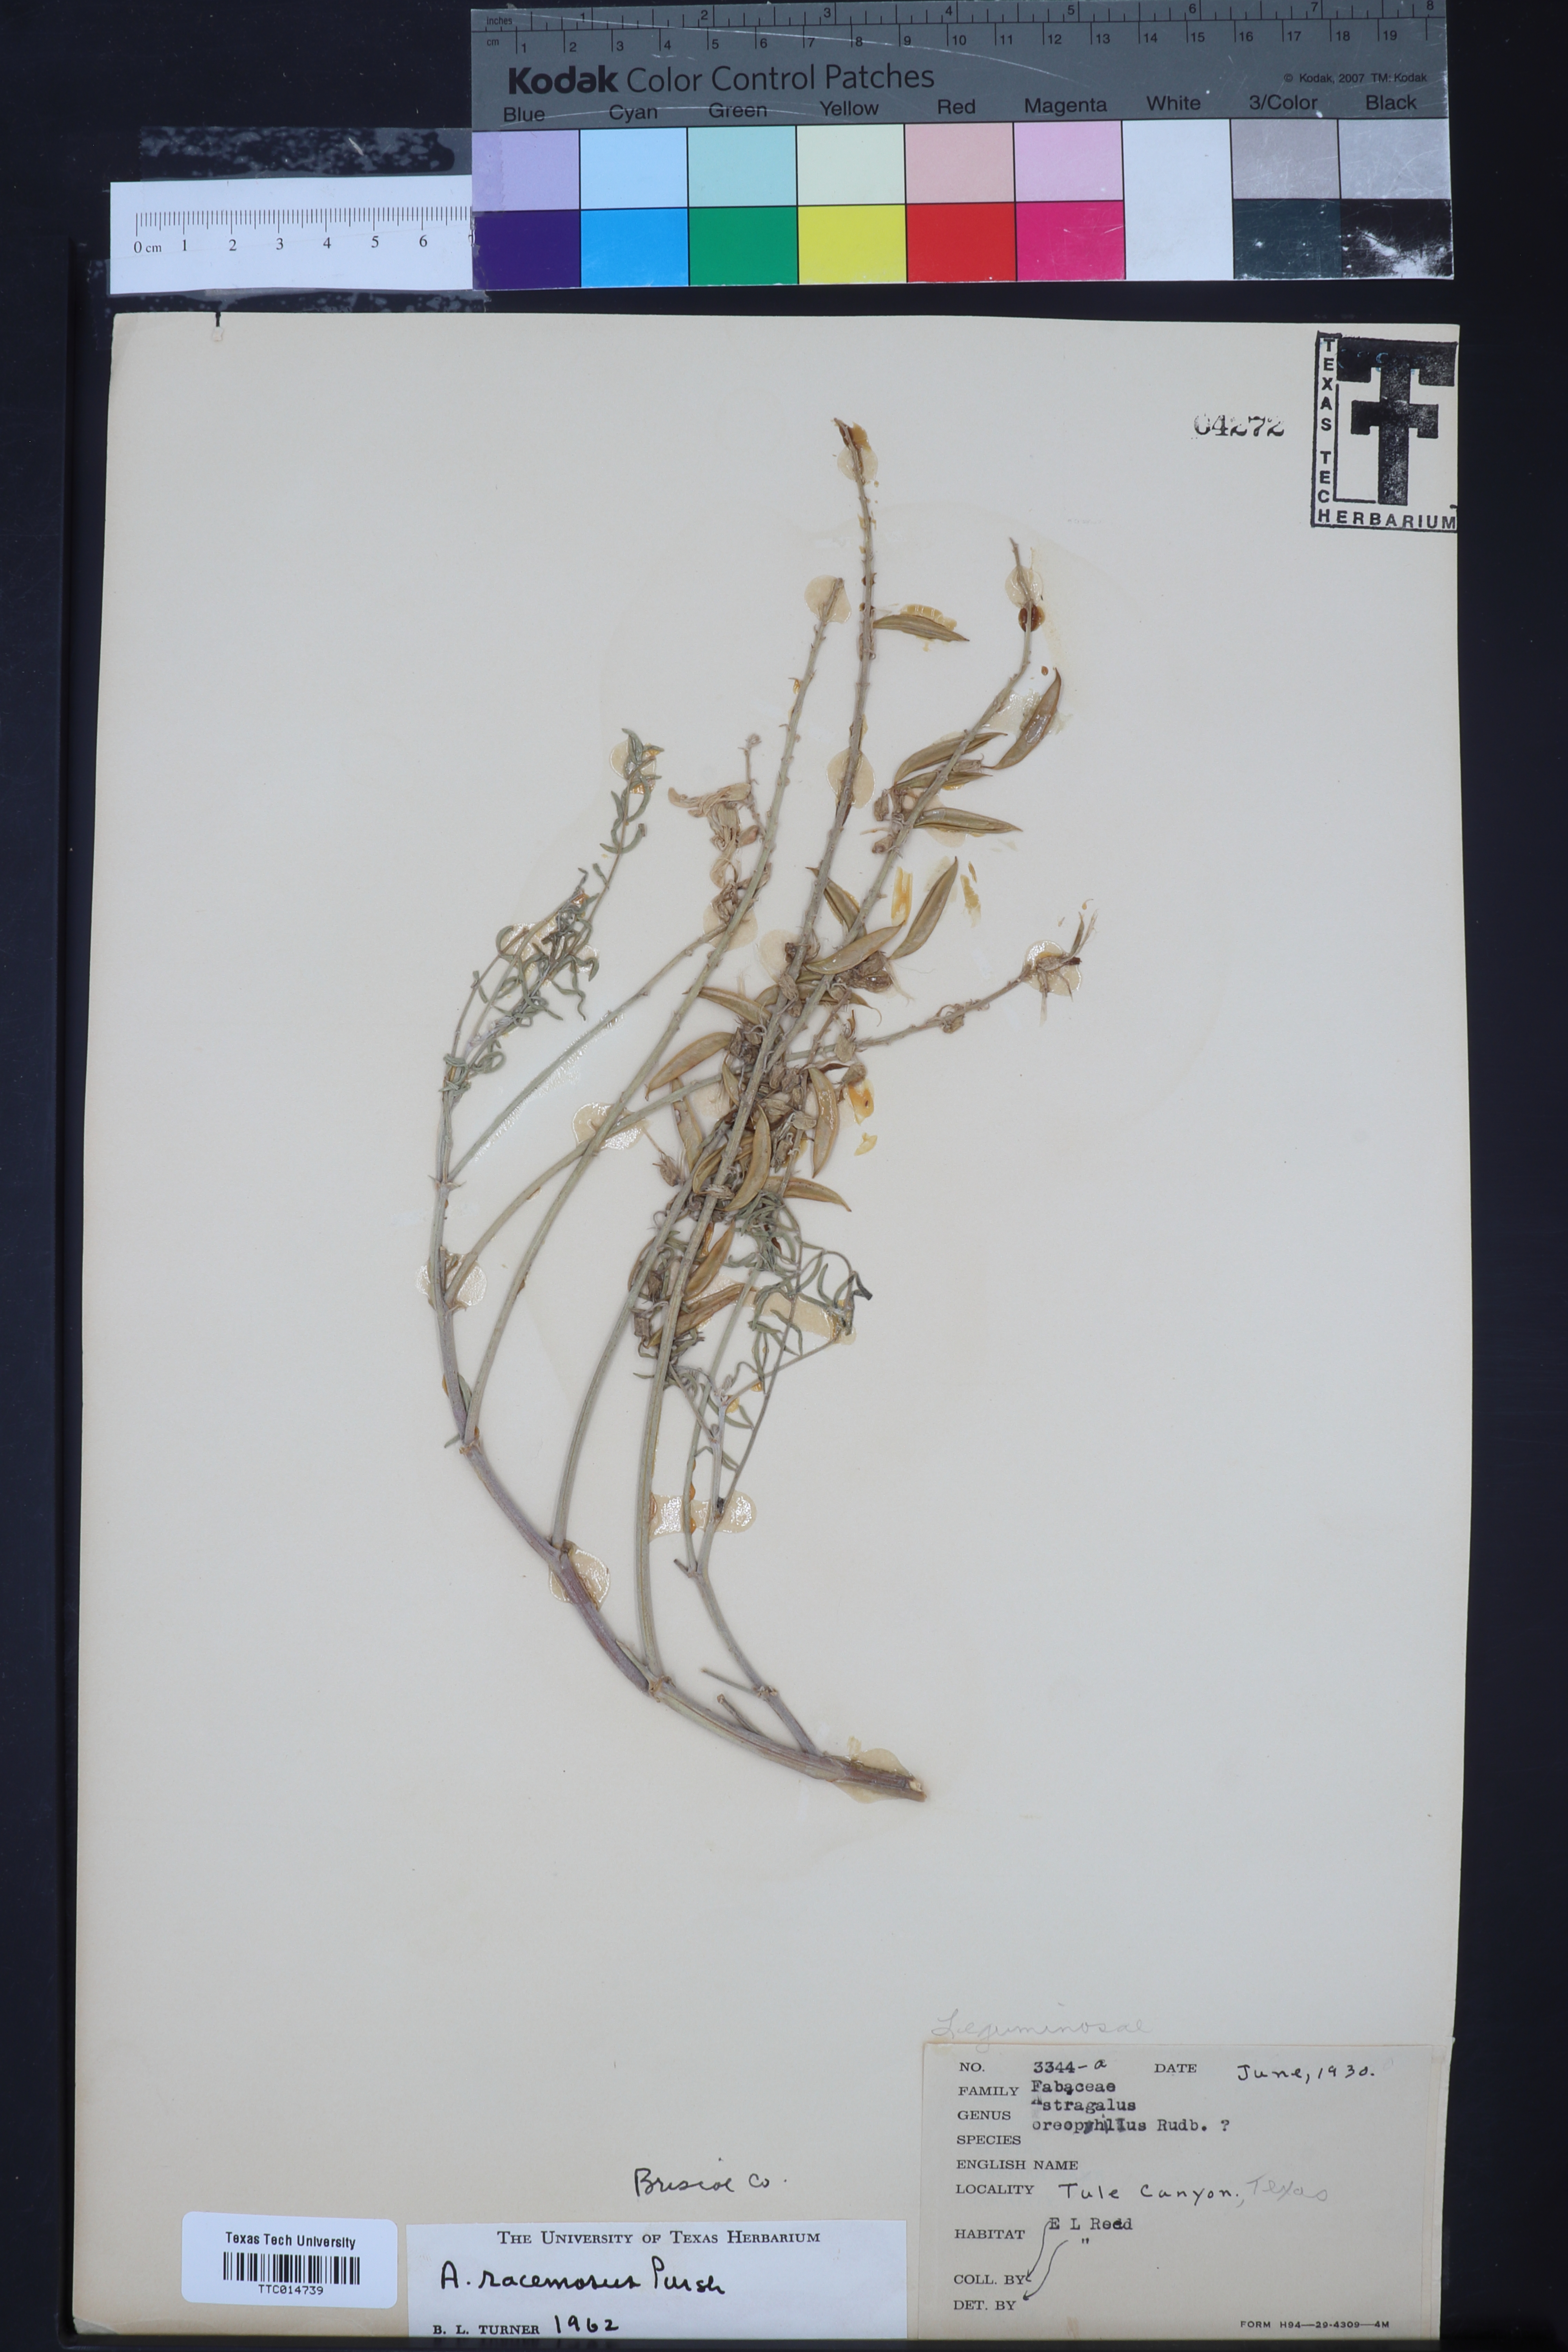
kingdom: Plantae
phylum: Tracheophyta
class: Magnoliopsida
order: Fabales
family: Fabaceae
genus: Astragalus
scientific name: Astragalus racemosus
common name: Alkali milk-vetch
